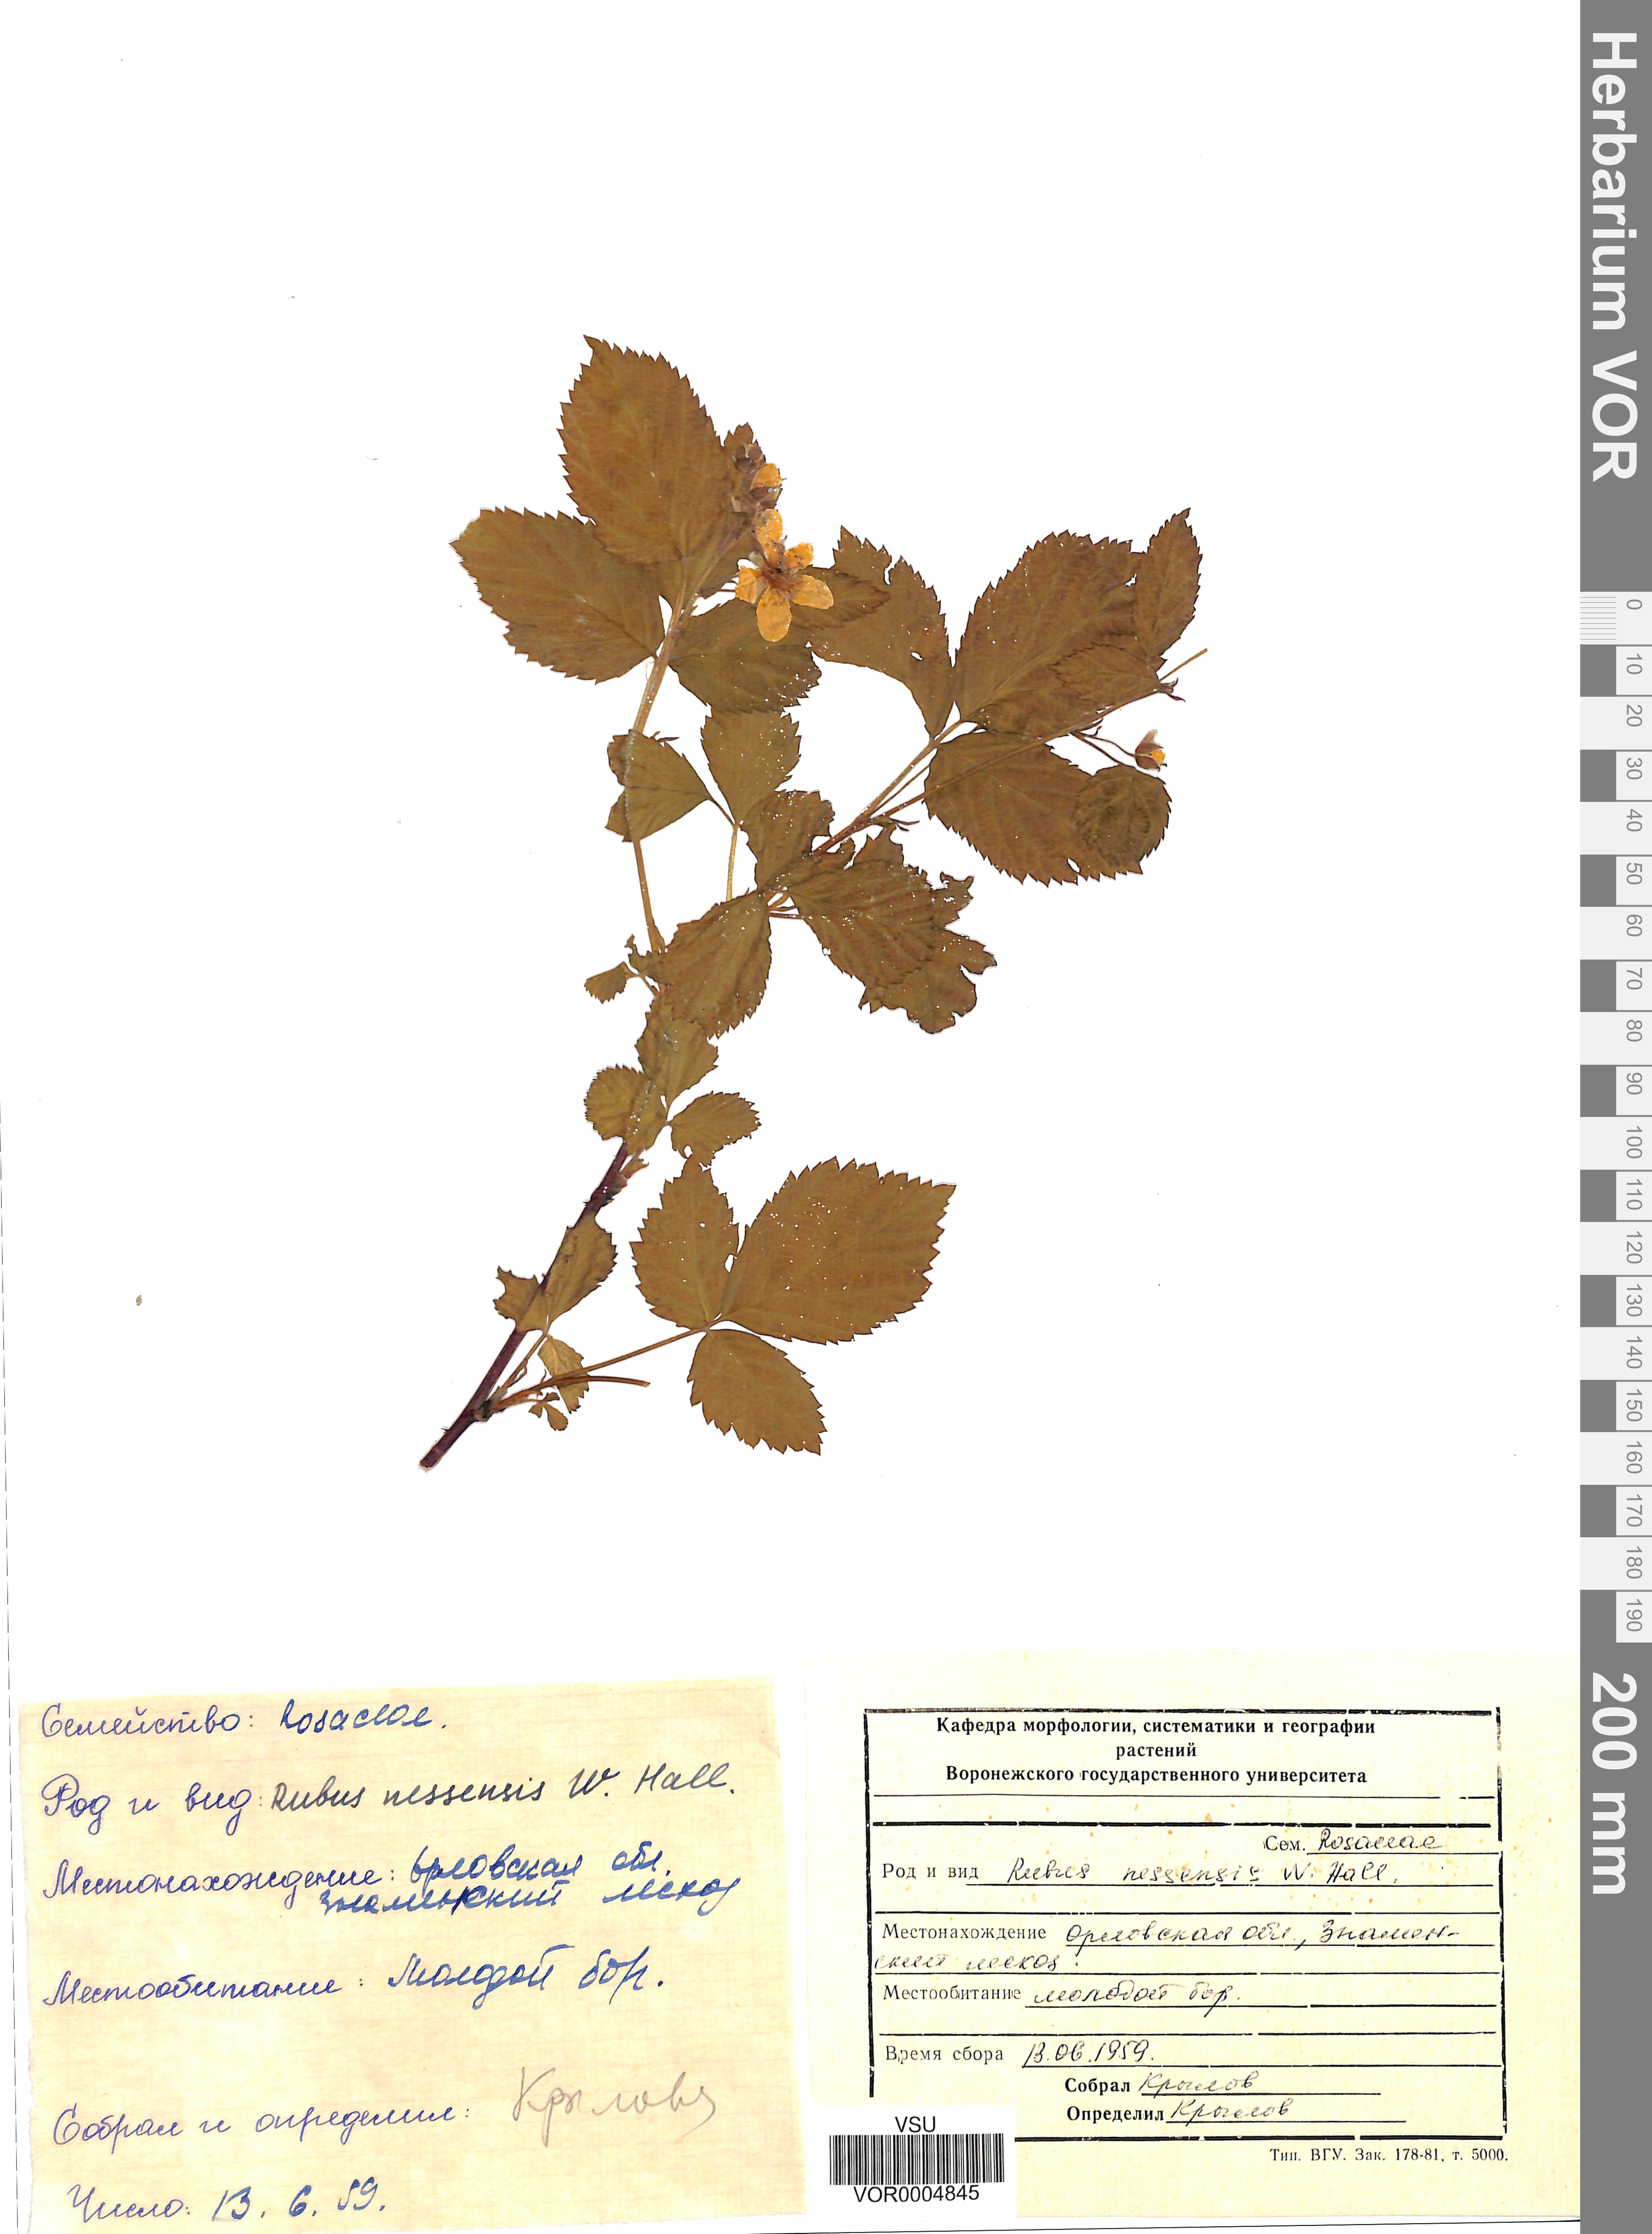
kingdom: Plantae
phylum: Tracheophyta
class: Magnoliopsida
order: Rosales
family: Rosaceae
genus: Rubus
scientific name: Rubus polonicus
